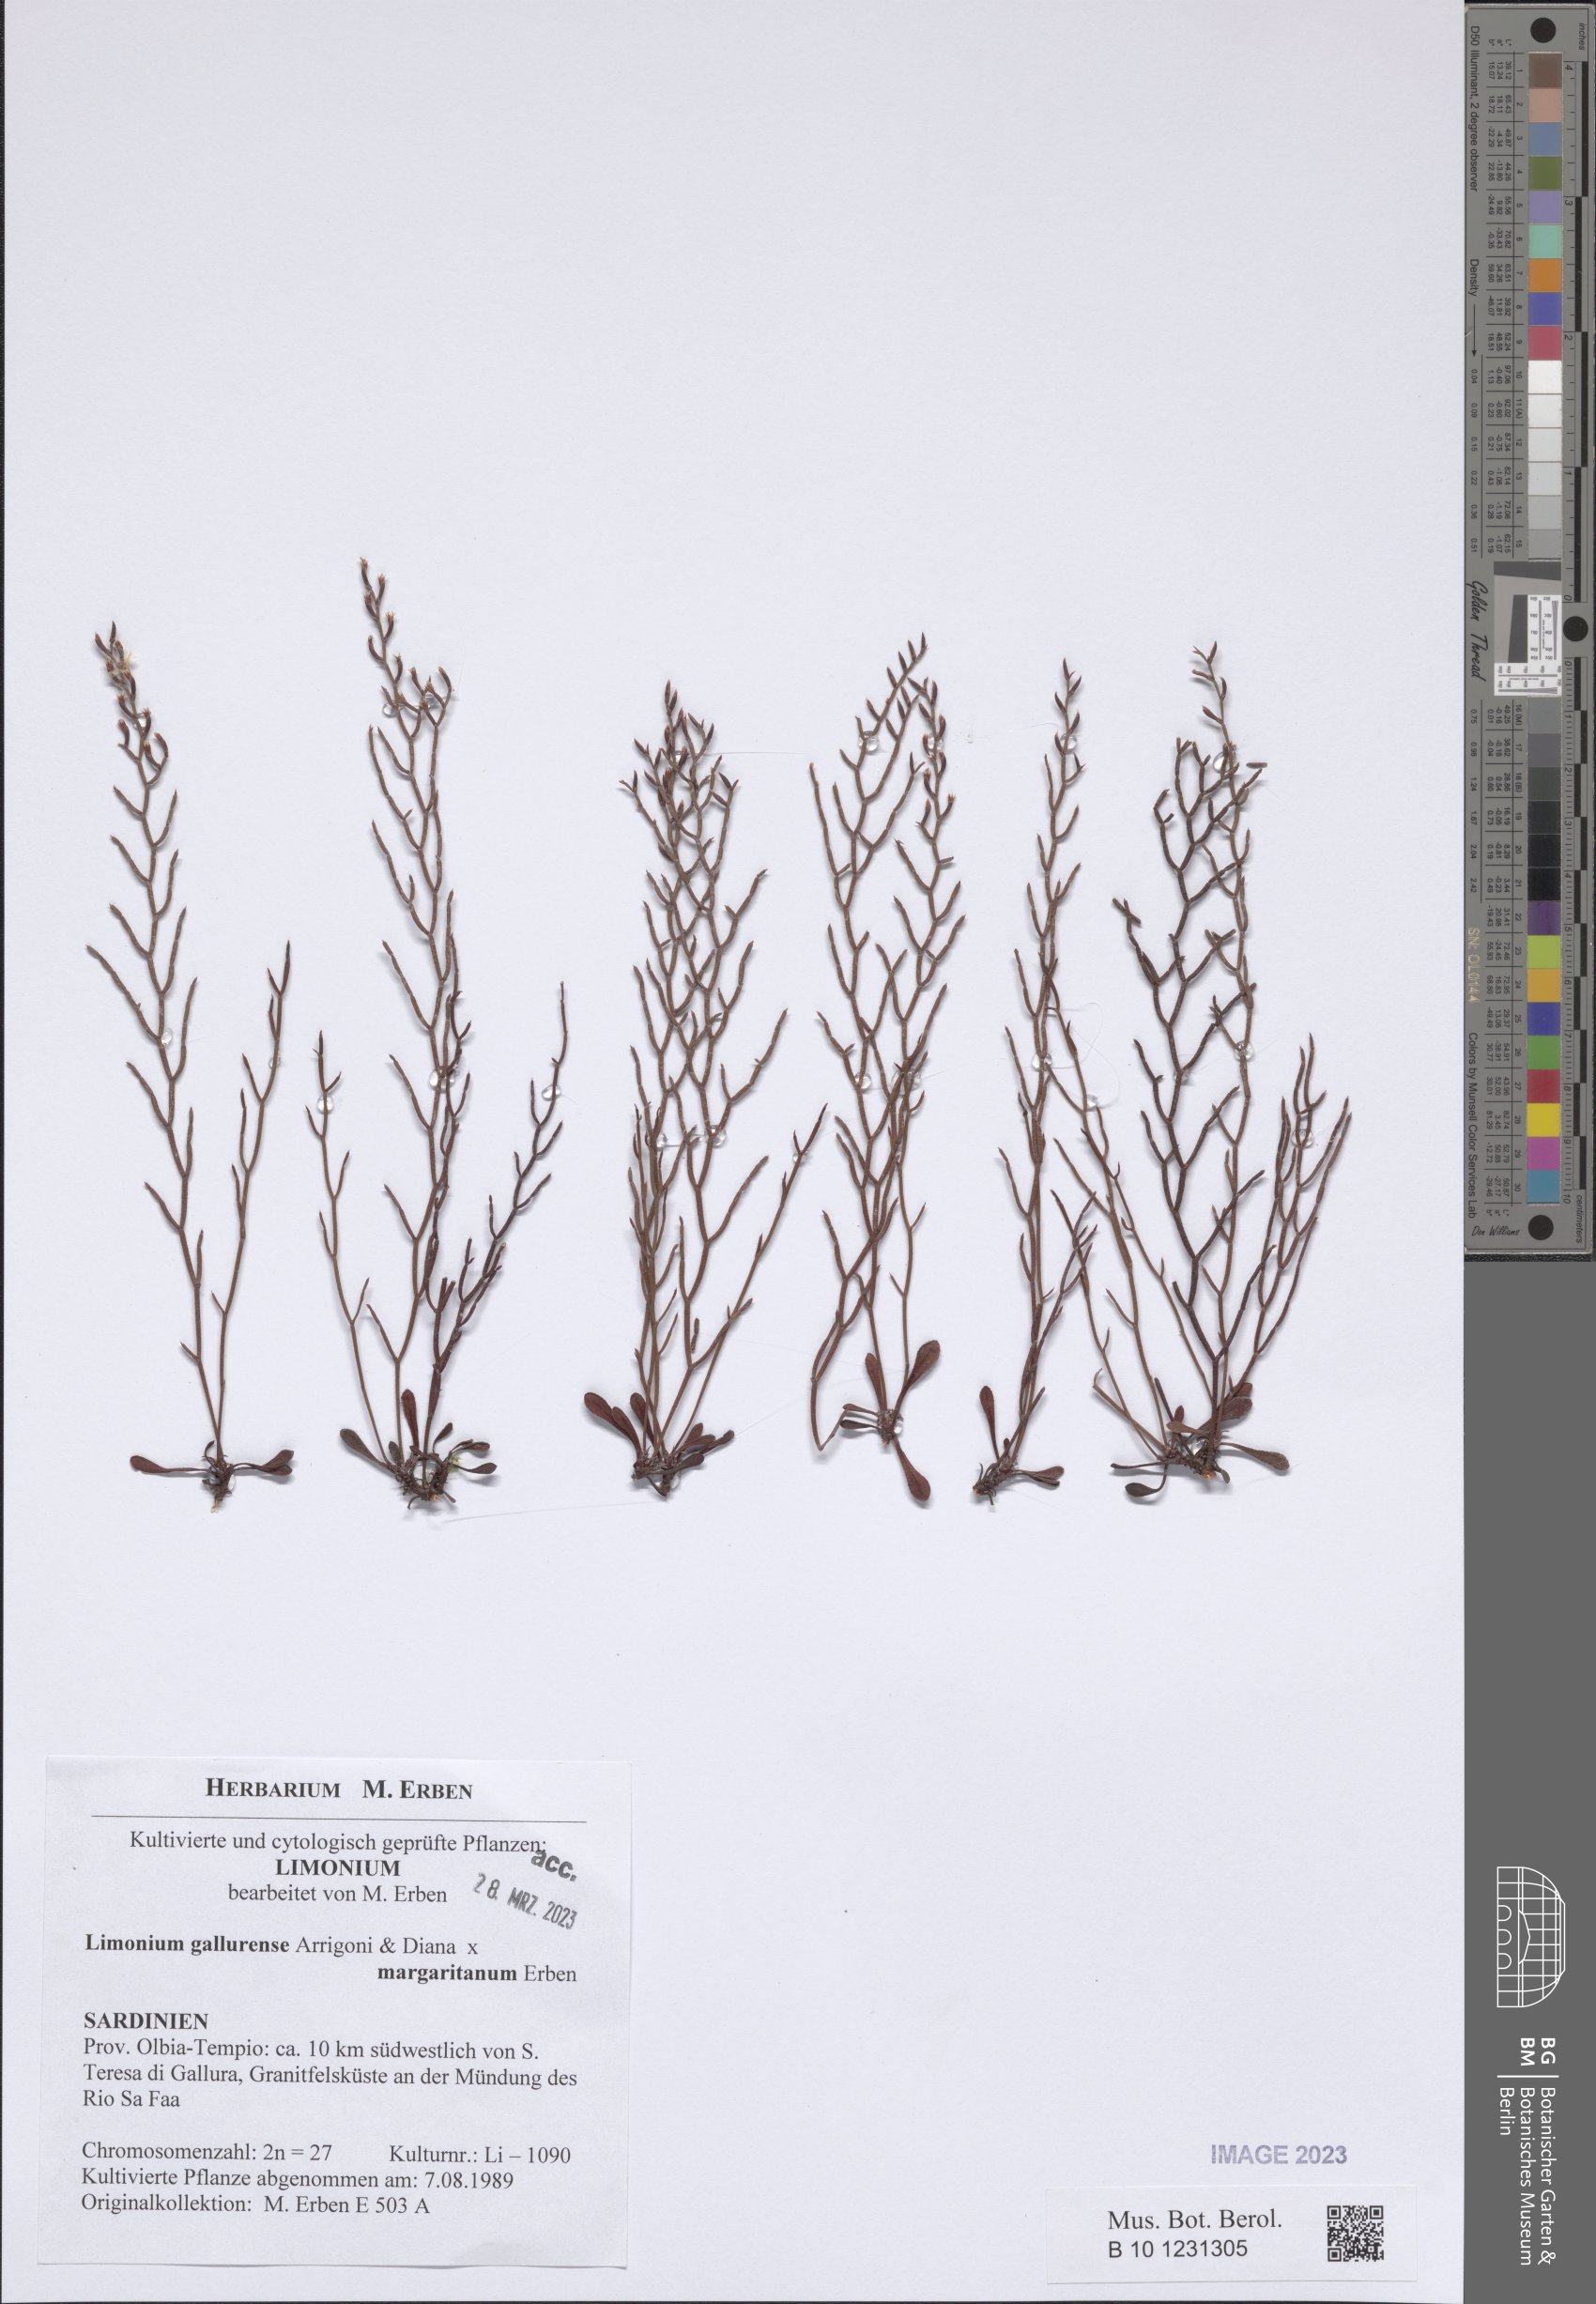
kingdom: Plantae
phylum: Tracheophyta
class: Magnoliopsida
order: Caryophyllales
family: Plumbaginaceae
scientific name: Plumbaginaceae
